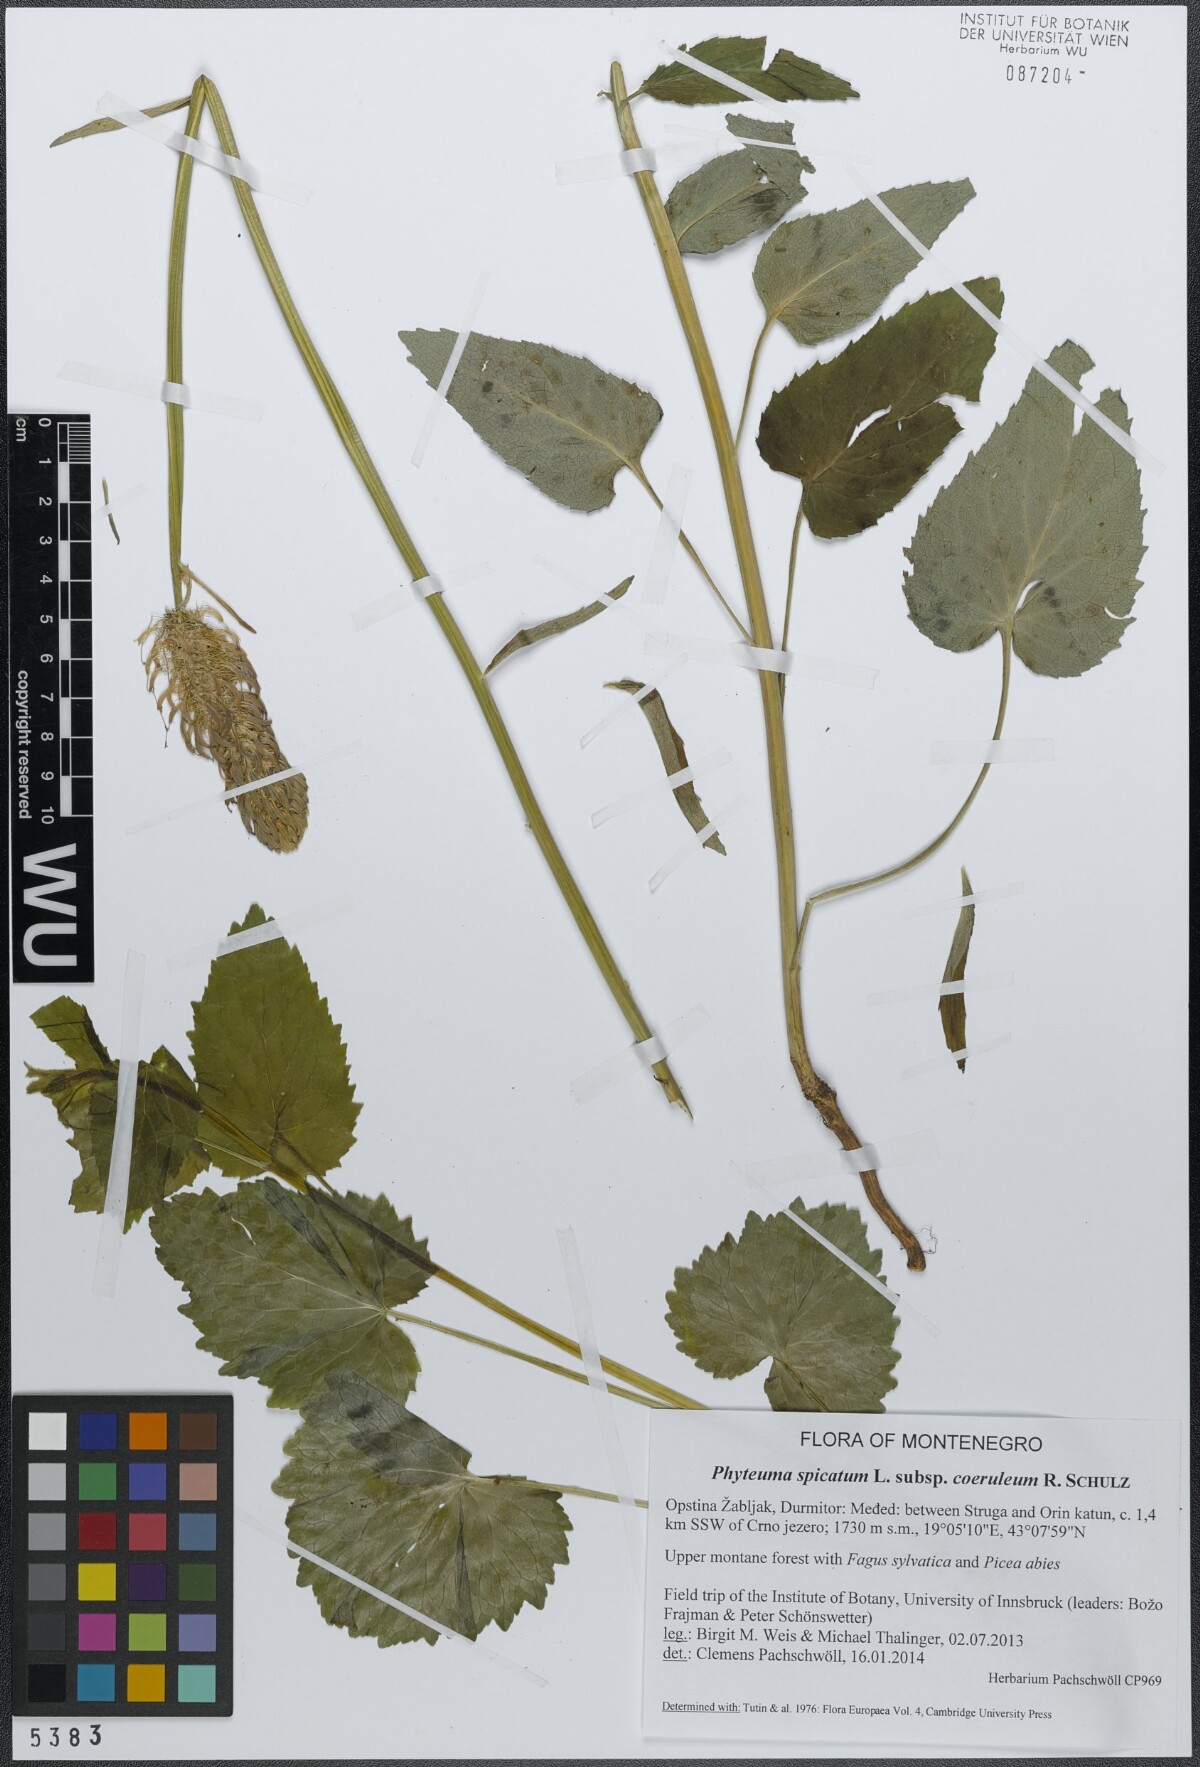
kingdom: Plantae
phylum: Tracheophyta
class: Magnoliopsida
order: Asterales
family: Campanulaceae
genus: Phyteuma
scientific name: Phyteuma spicatum
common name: Spiked rampion
